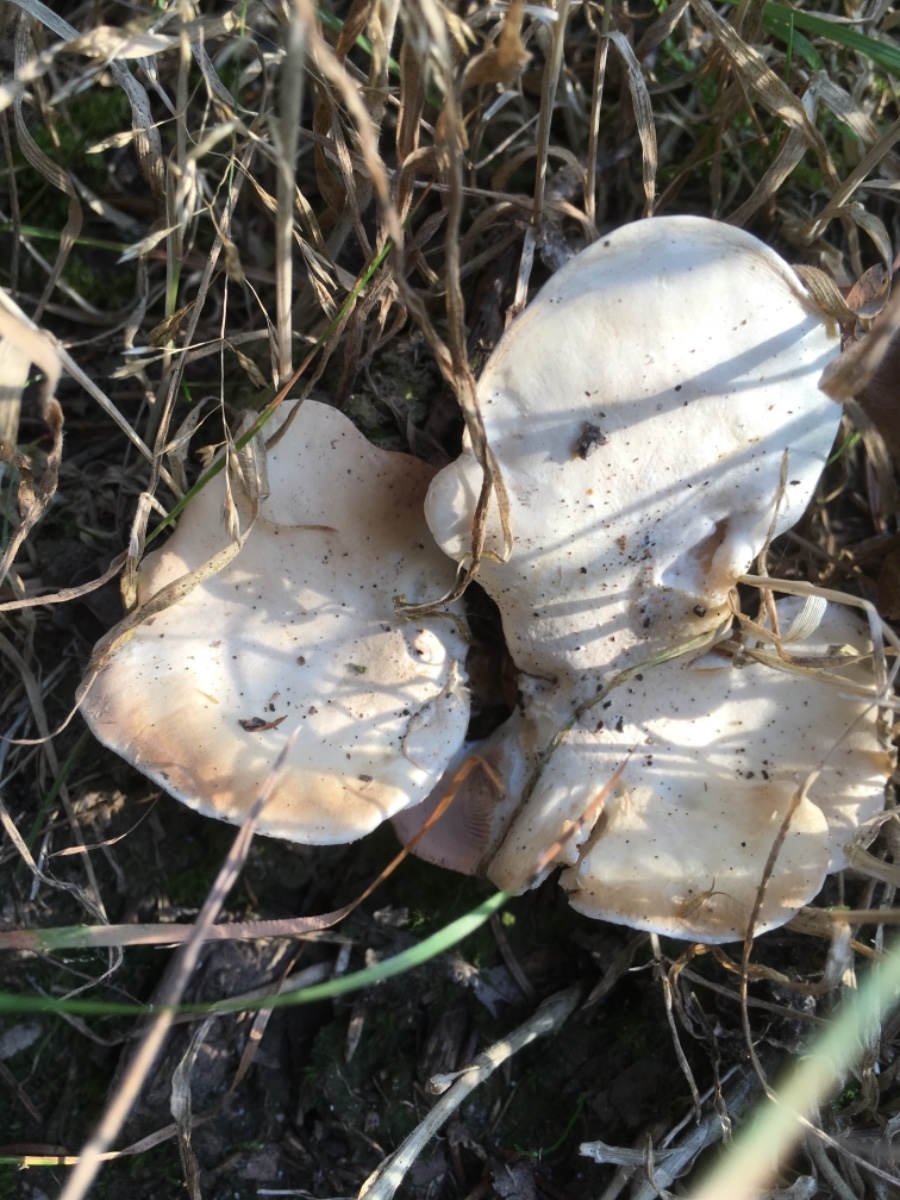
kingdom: Fungi
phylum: Basidiomycota
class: Agaricomycetes
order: Agaricales
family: Entolomataceae
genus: Clitopilus
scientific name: Clitopilus
